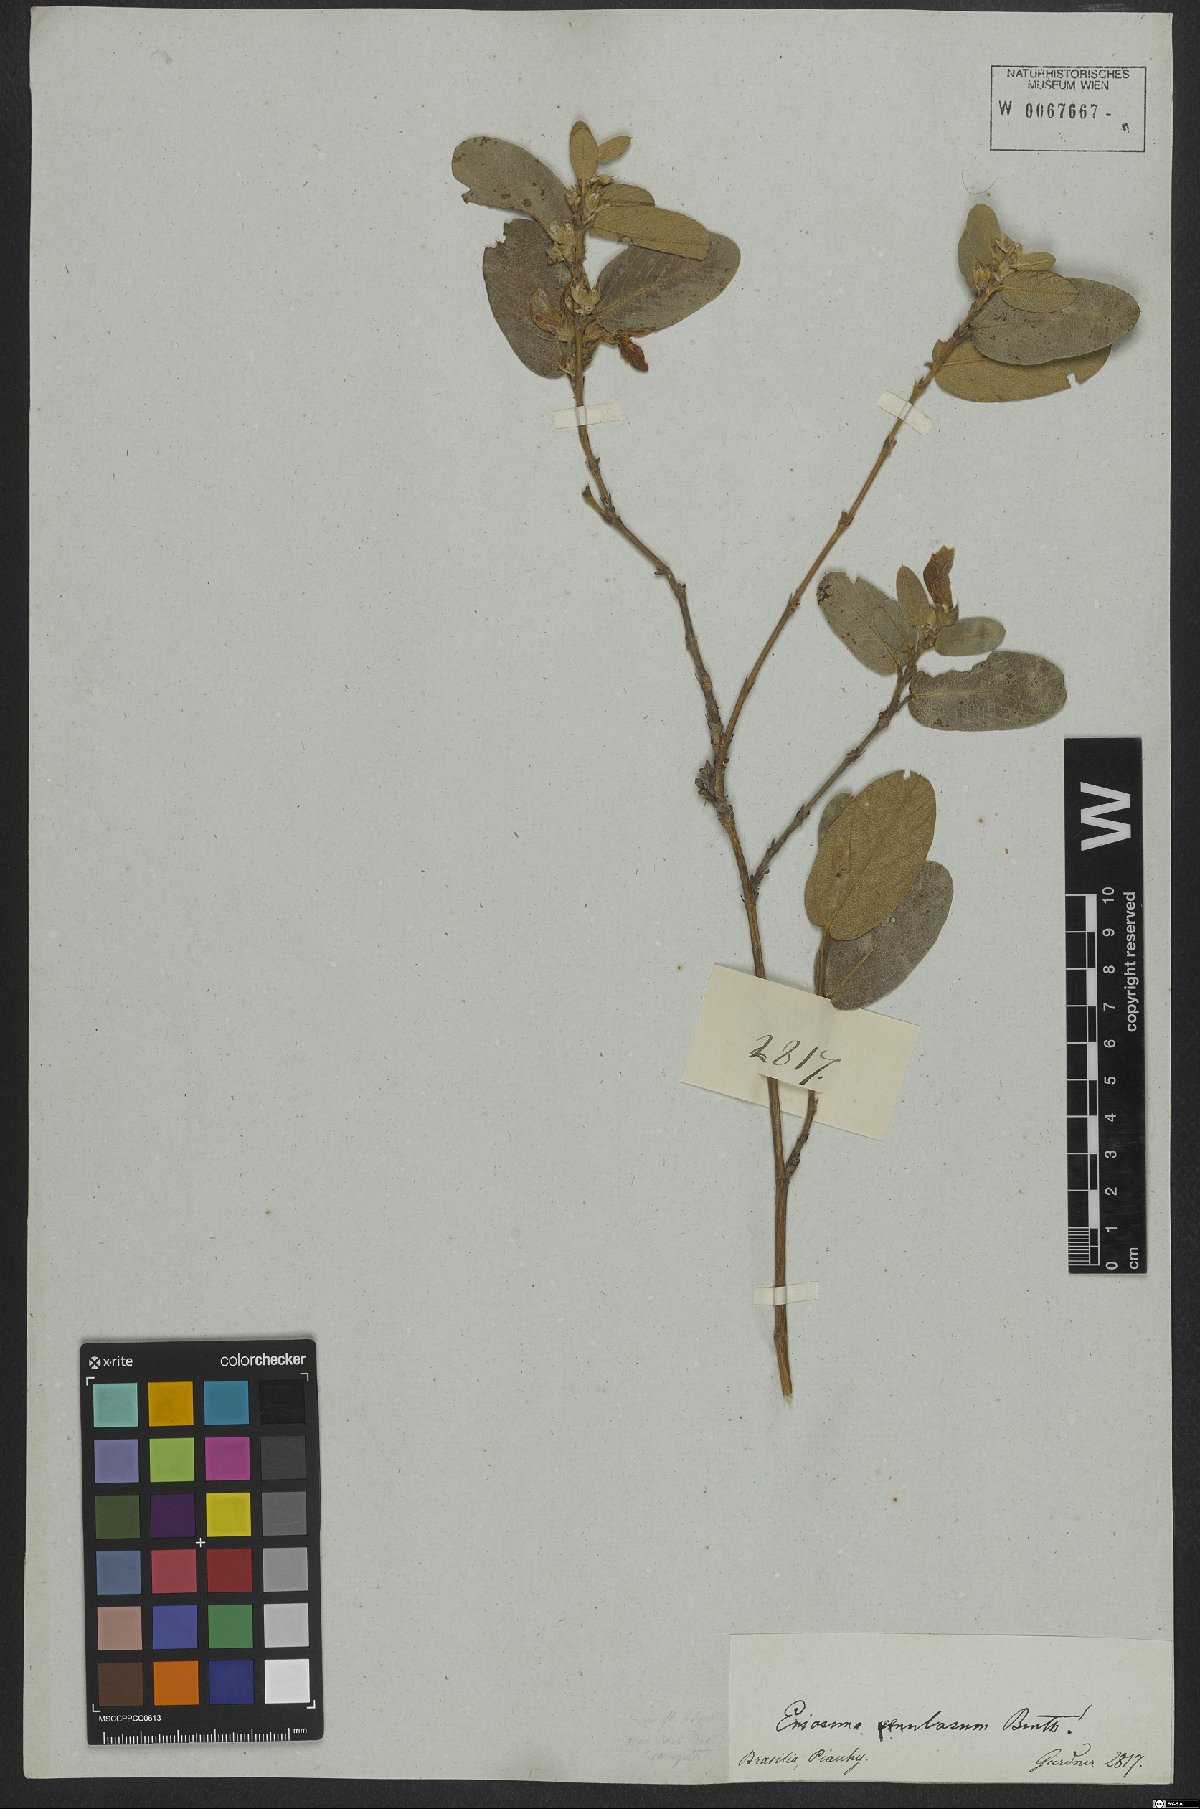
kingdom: Plantae
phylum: Tracheophyta
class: Magnoliopsida
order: Fabales
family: Fabaceae
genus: Eriosema
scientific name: Eriosema venulosum
